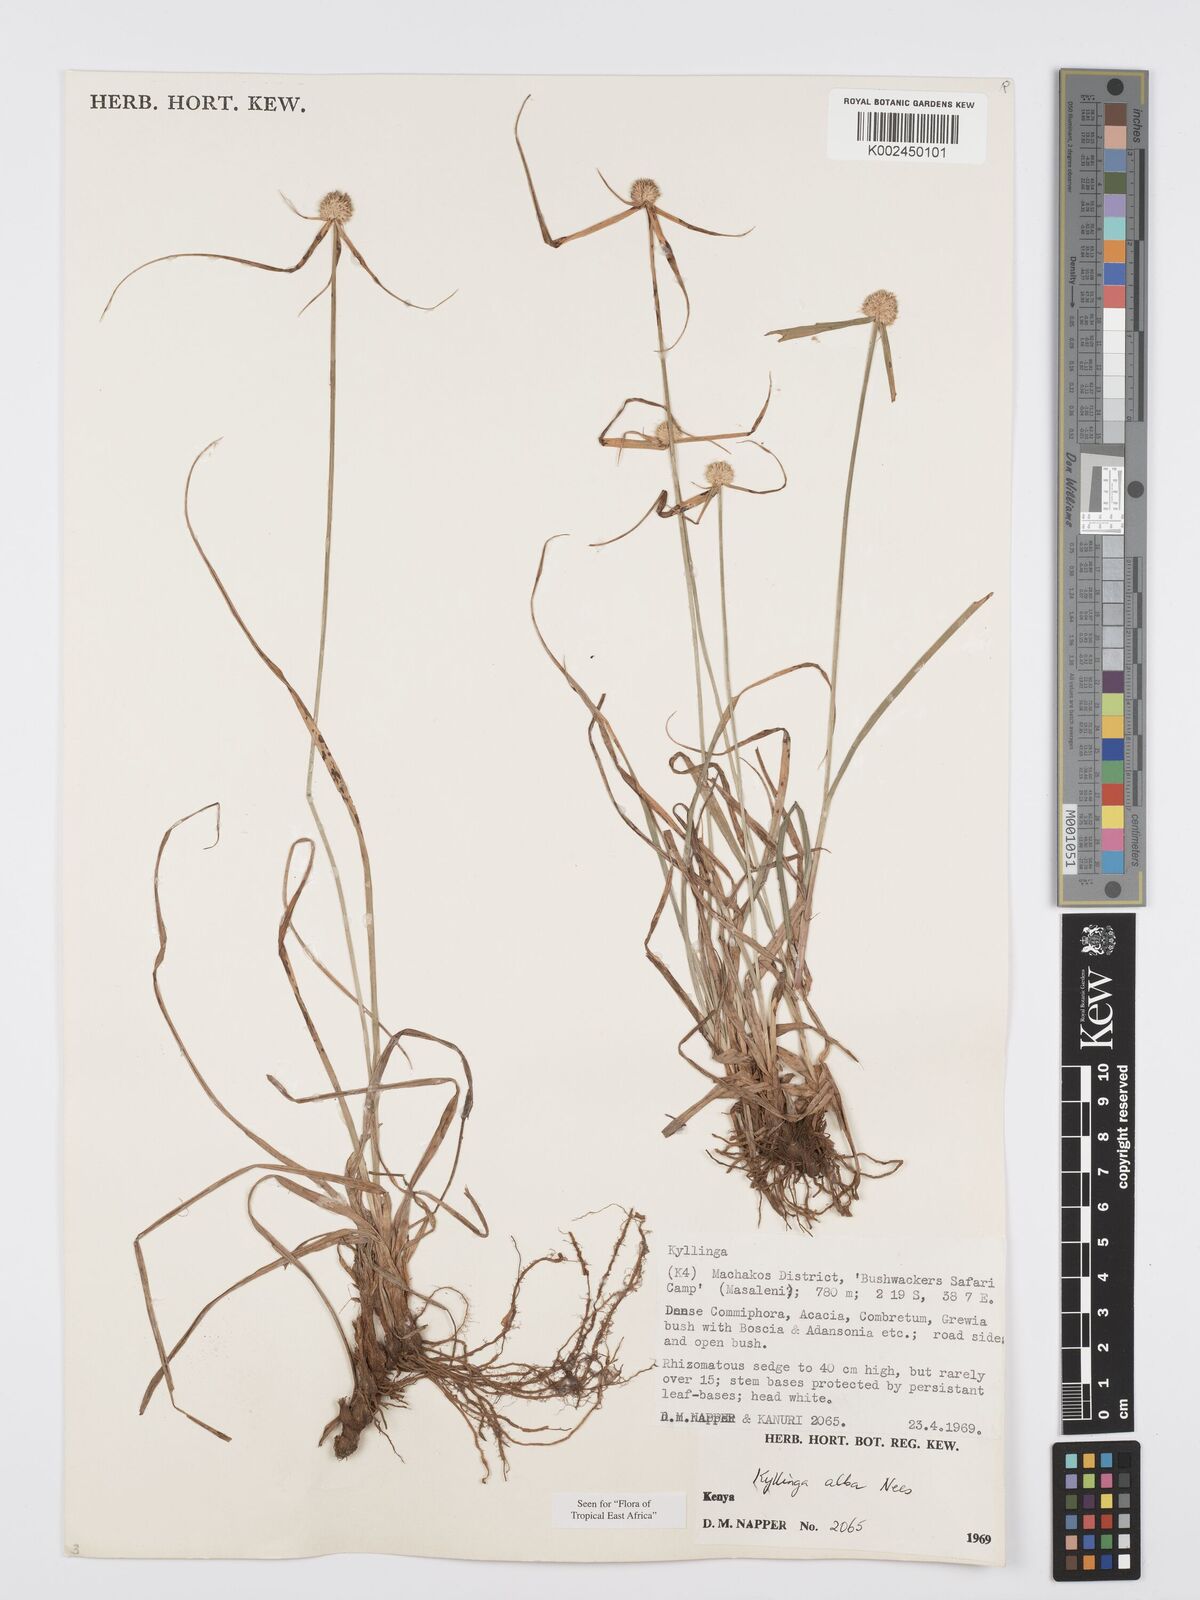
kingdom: Plantae
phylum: Tracheophyta
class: Liliopsida
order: Poales
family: Cyperaceae
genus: Cyperus
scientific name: Cyperus
